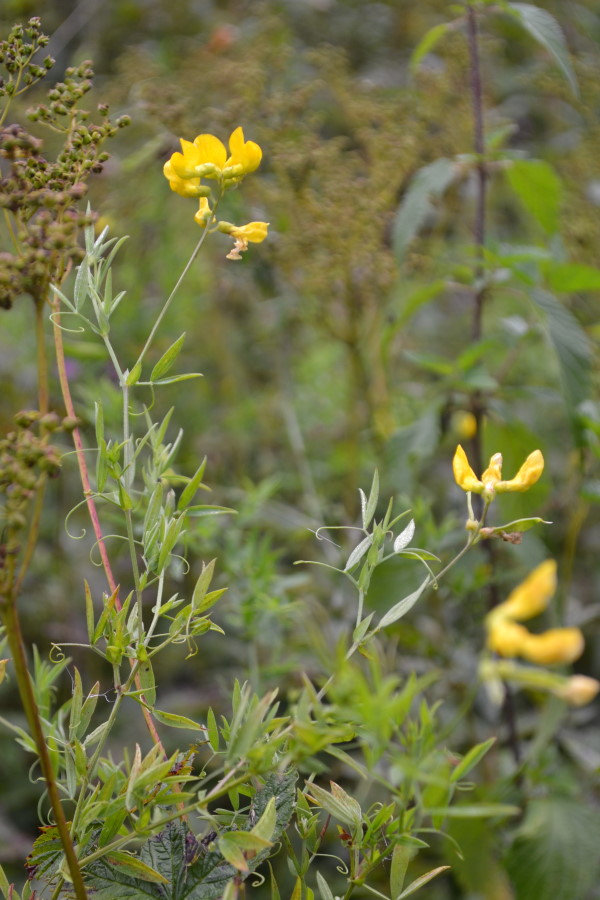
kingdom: Plantae
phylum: Tracheophyta
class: Magnoliopsida
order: Fabales
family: Fabaceae
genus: Lathyrus
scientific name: Lathyrus pratensis
